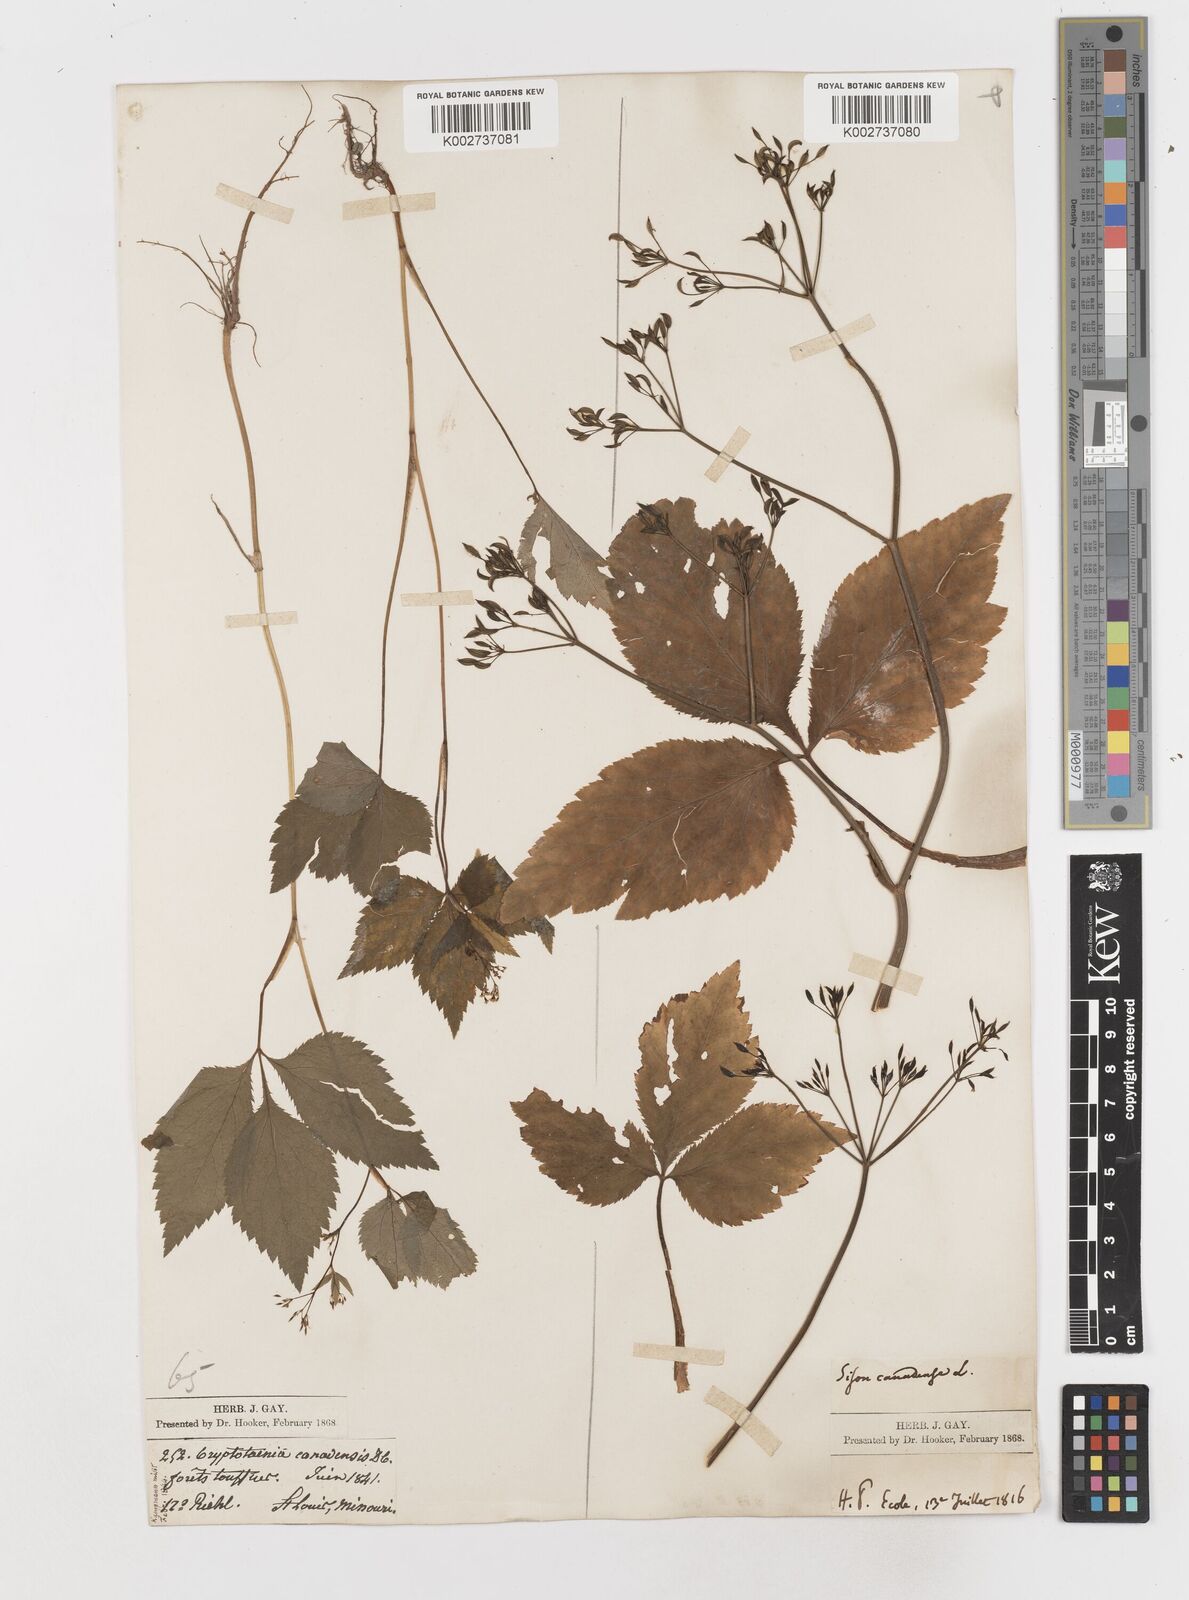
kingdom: Plantae
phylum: Tracheophyta
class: Magnoliopsida
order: Apiales
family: Apiaceae
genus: Cryptotaenia
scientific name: Cryptotaenia canadensis
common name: Honewort
